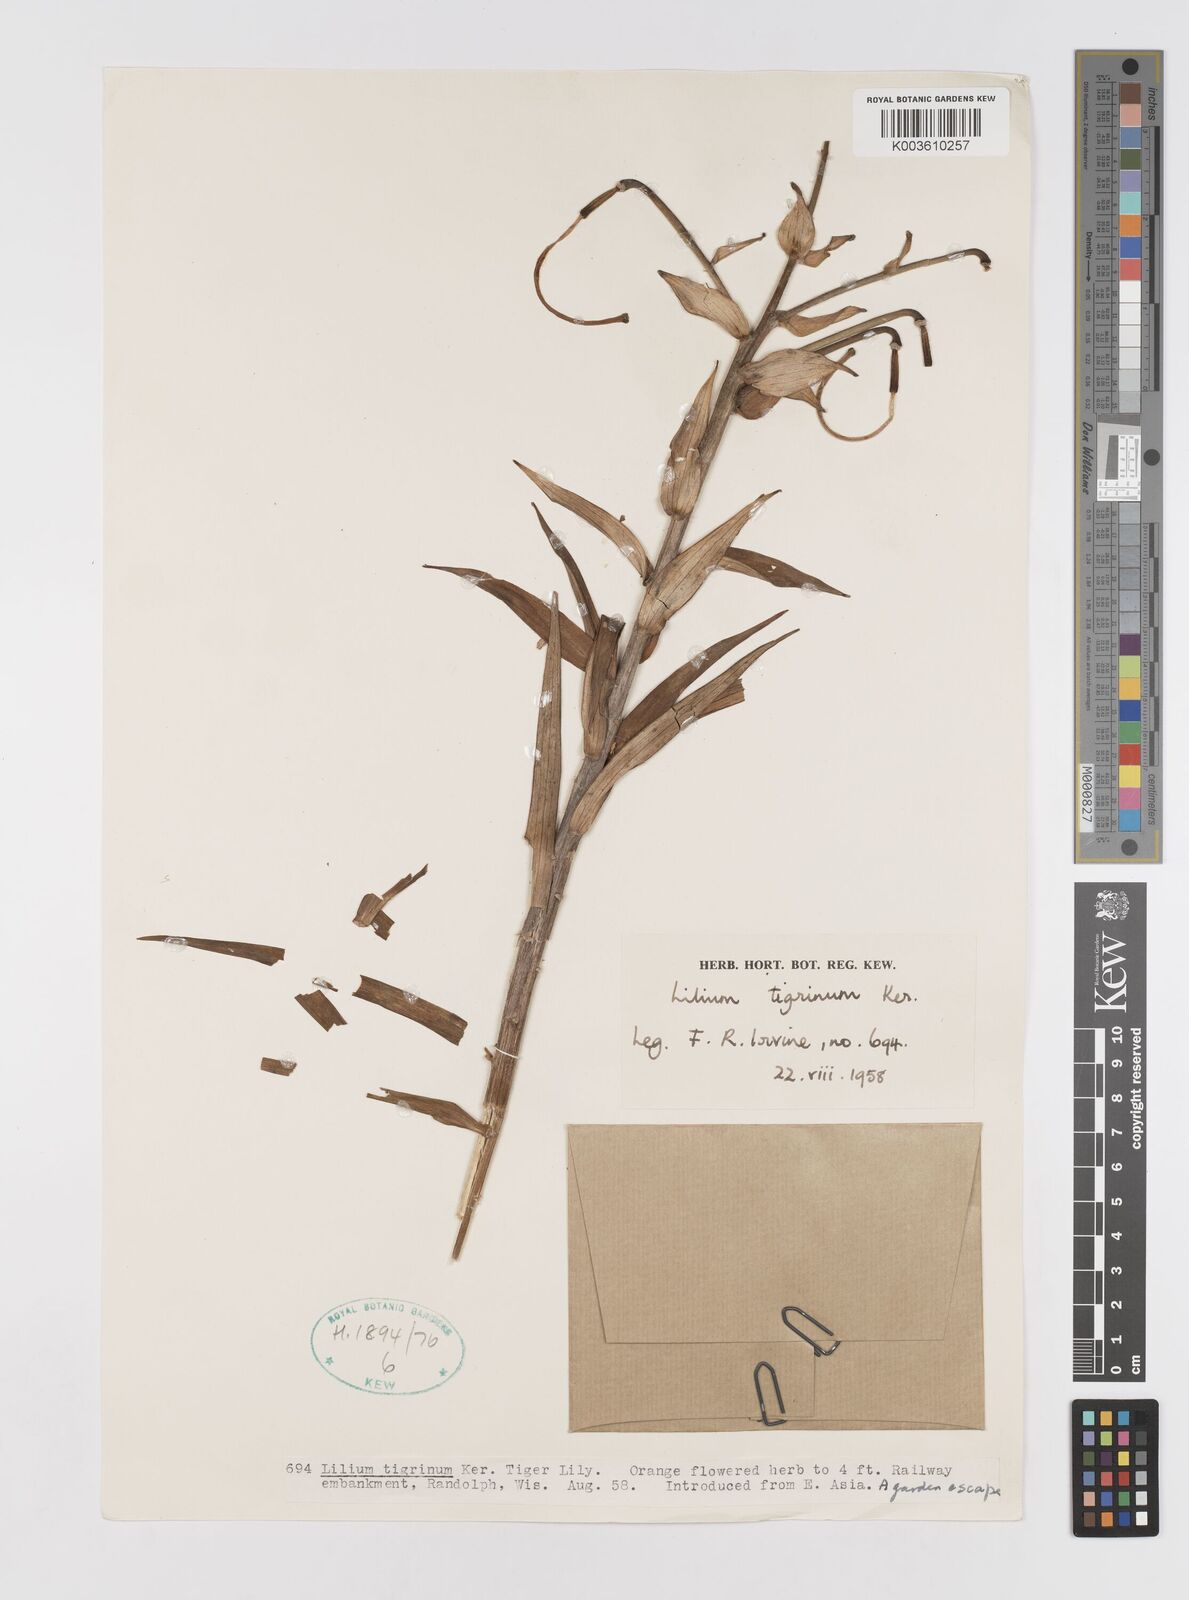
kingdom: Plantae
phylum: Tracheophyta
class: Liliopsida
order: Liliales
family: Liliaceae
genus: Lilium
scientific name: Lilium lancifolium
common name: Tiger lily
